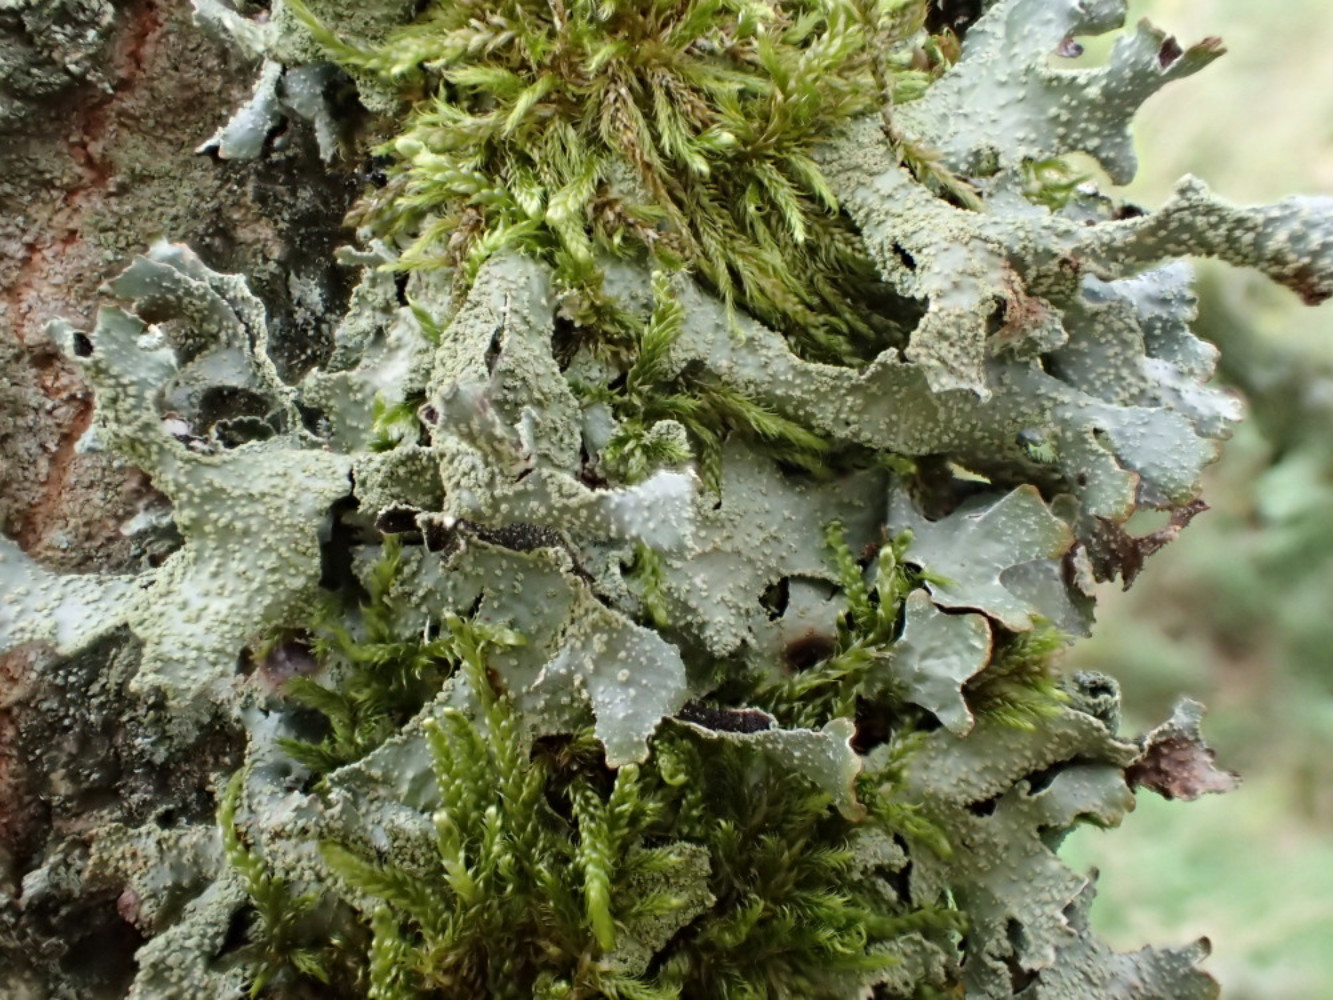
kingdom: Fungi
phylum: Ascomycota
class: Lecanoromycetes
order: Lecanorales
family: Parmeliaceae
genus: Parmelia
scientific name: Parmelia submontana
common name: langlobet skållav
